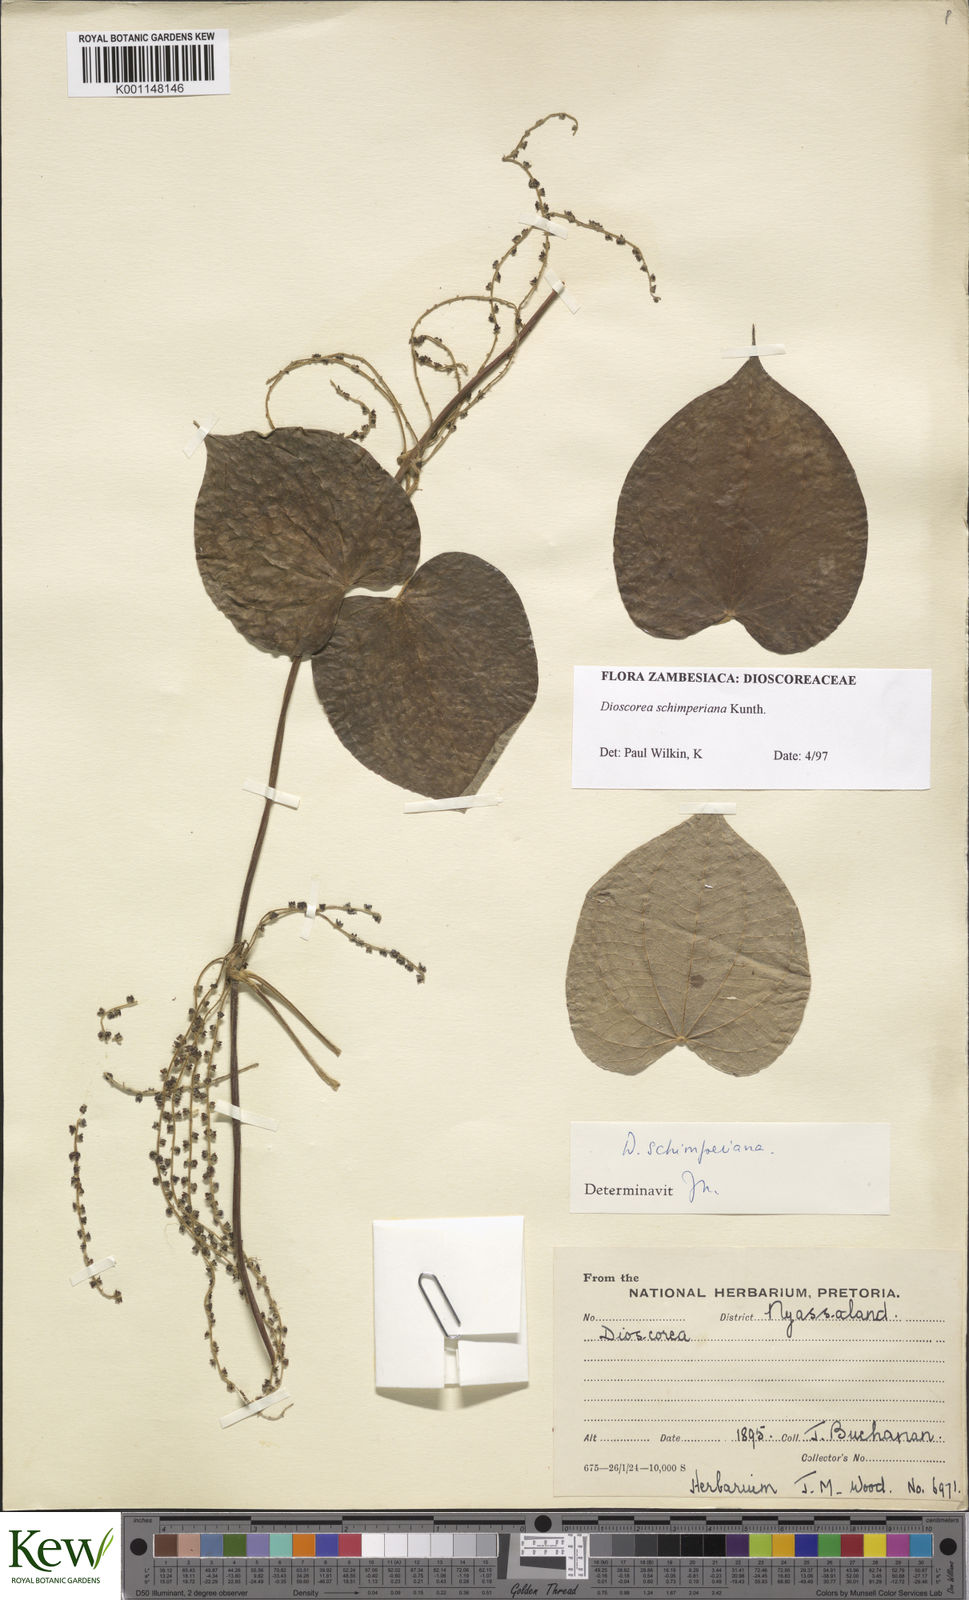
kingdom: Plantae
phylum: Tracheophyta
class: Liliopsida
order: Dioscoreales
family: Dioscoreaceae
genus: Dioscorea
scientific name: Dioscorea schimperiana
